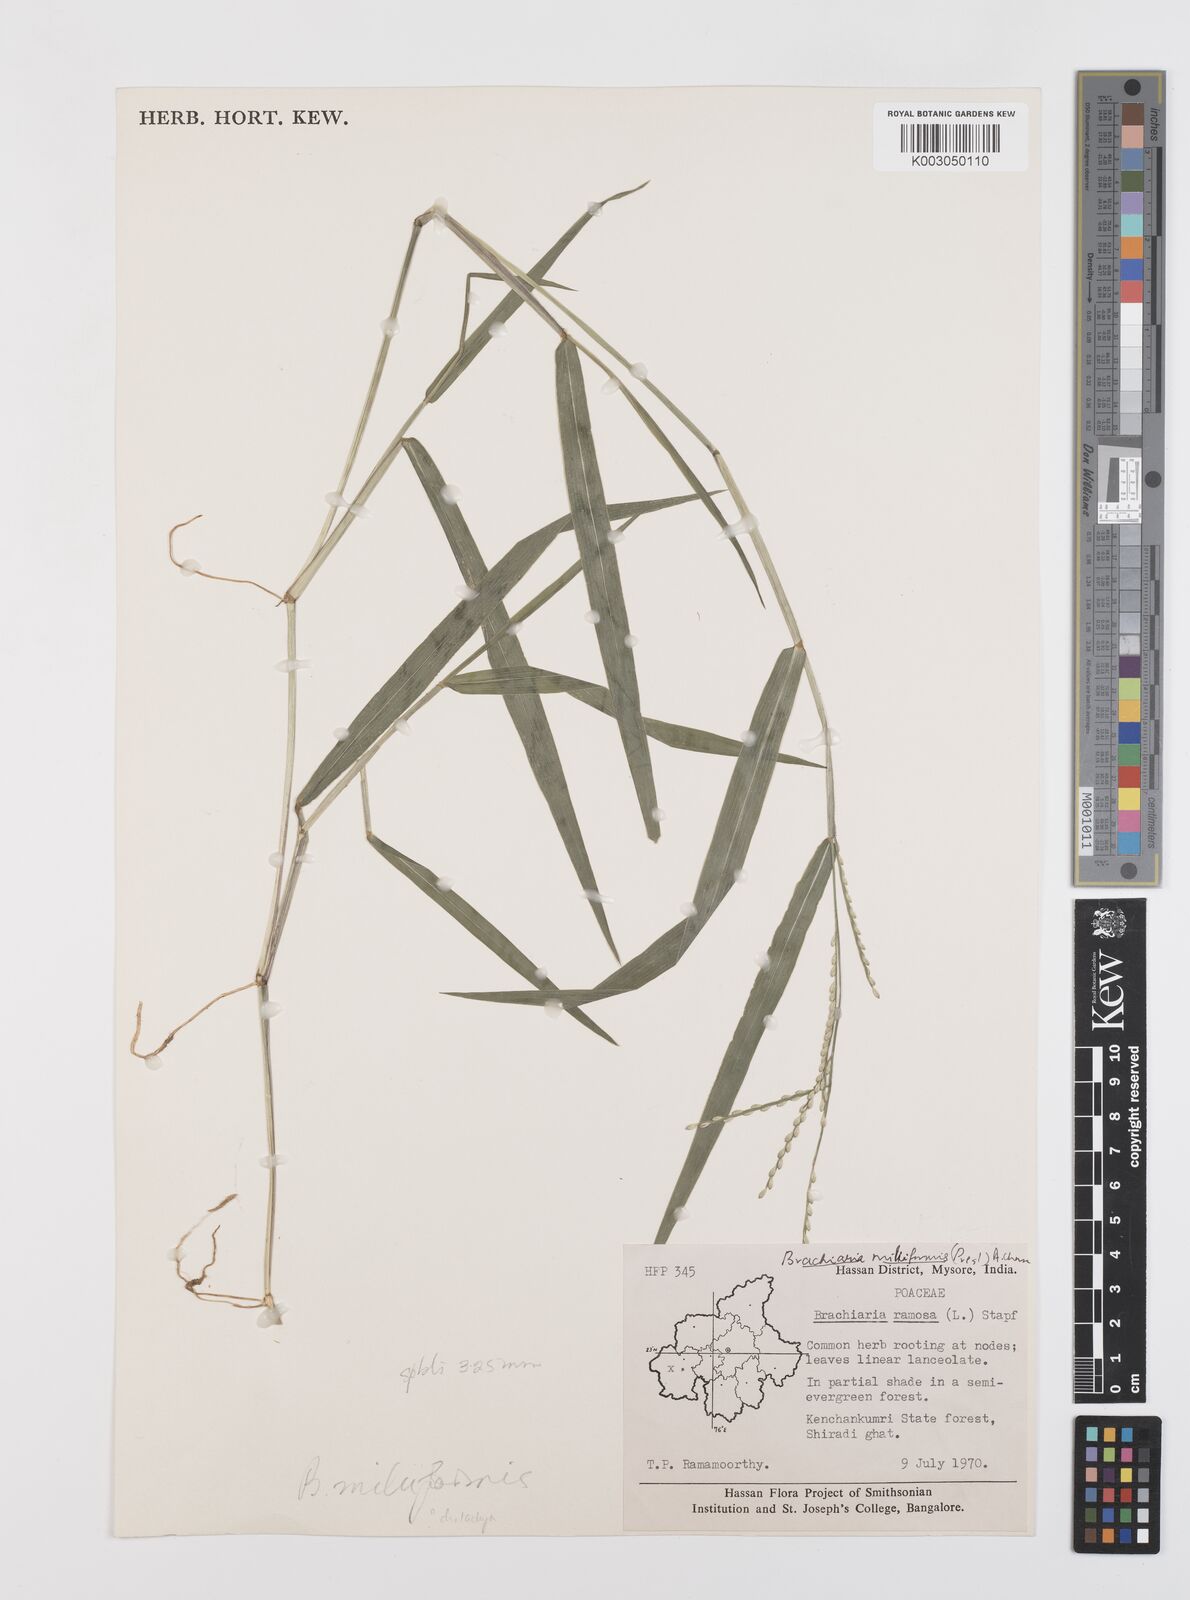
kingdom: Plantae
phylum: Tracheophyta
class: Liliopsida
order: Poales
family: Poaceae
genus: Urochloa
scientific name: Urochloa subquadripara
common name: Armgrass millet
